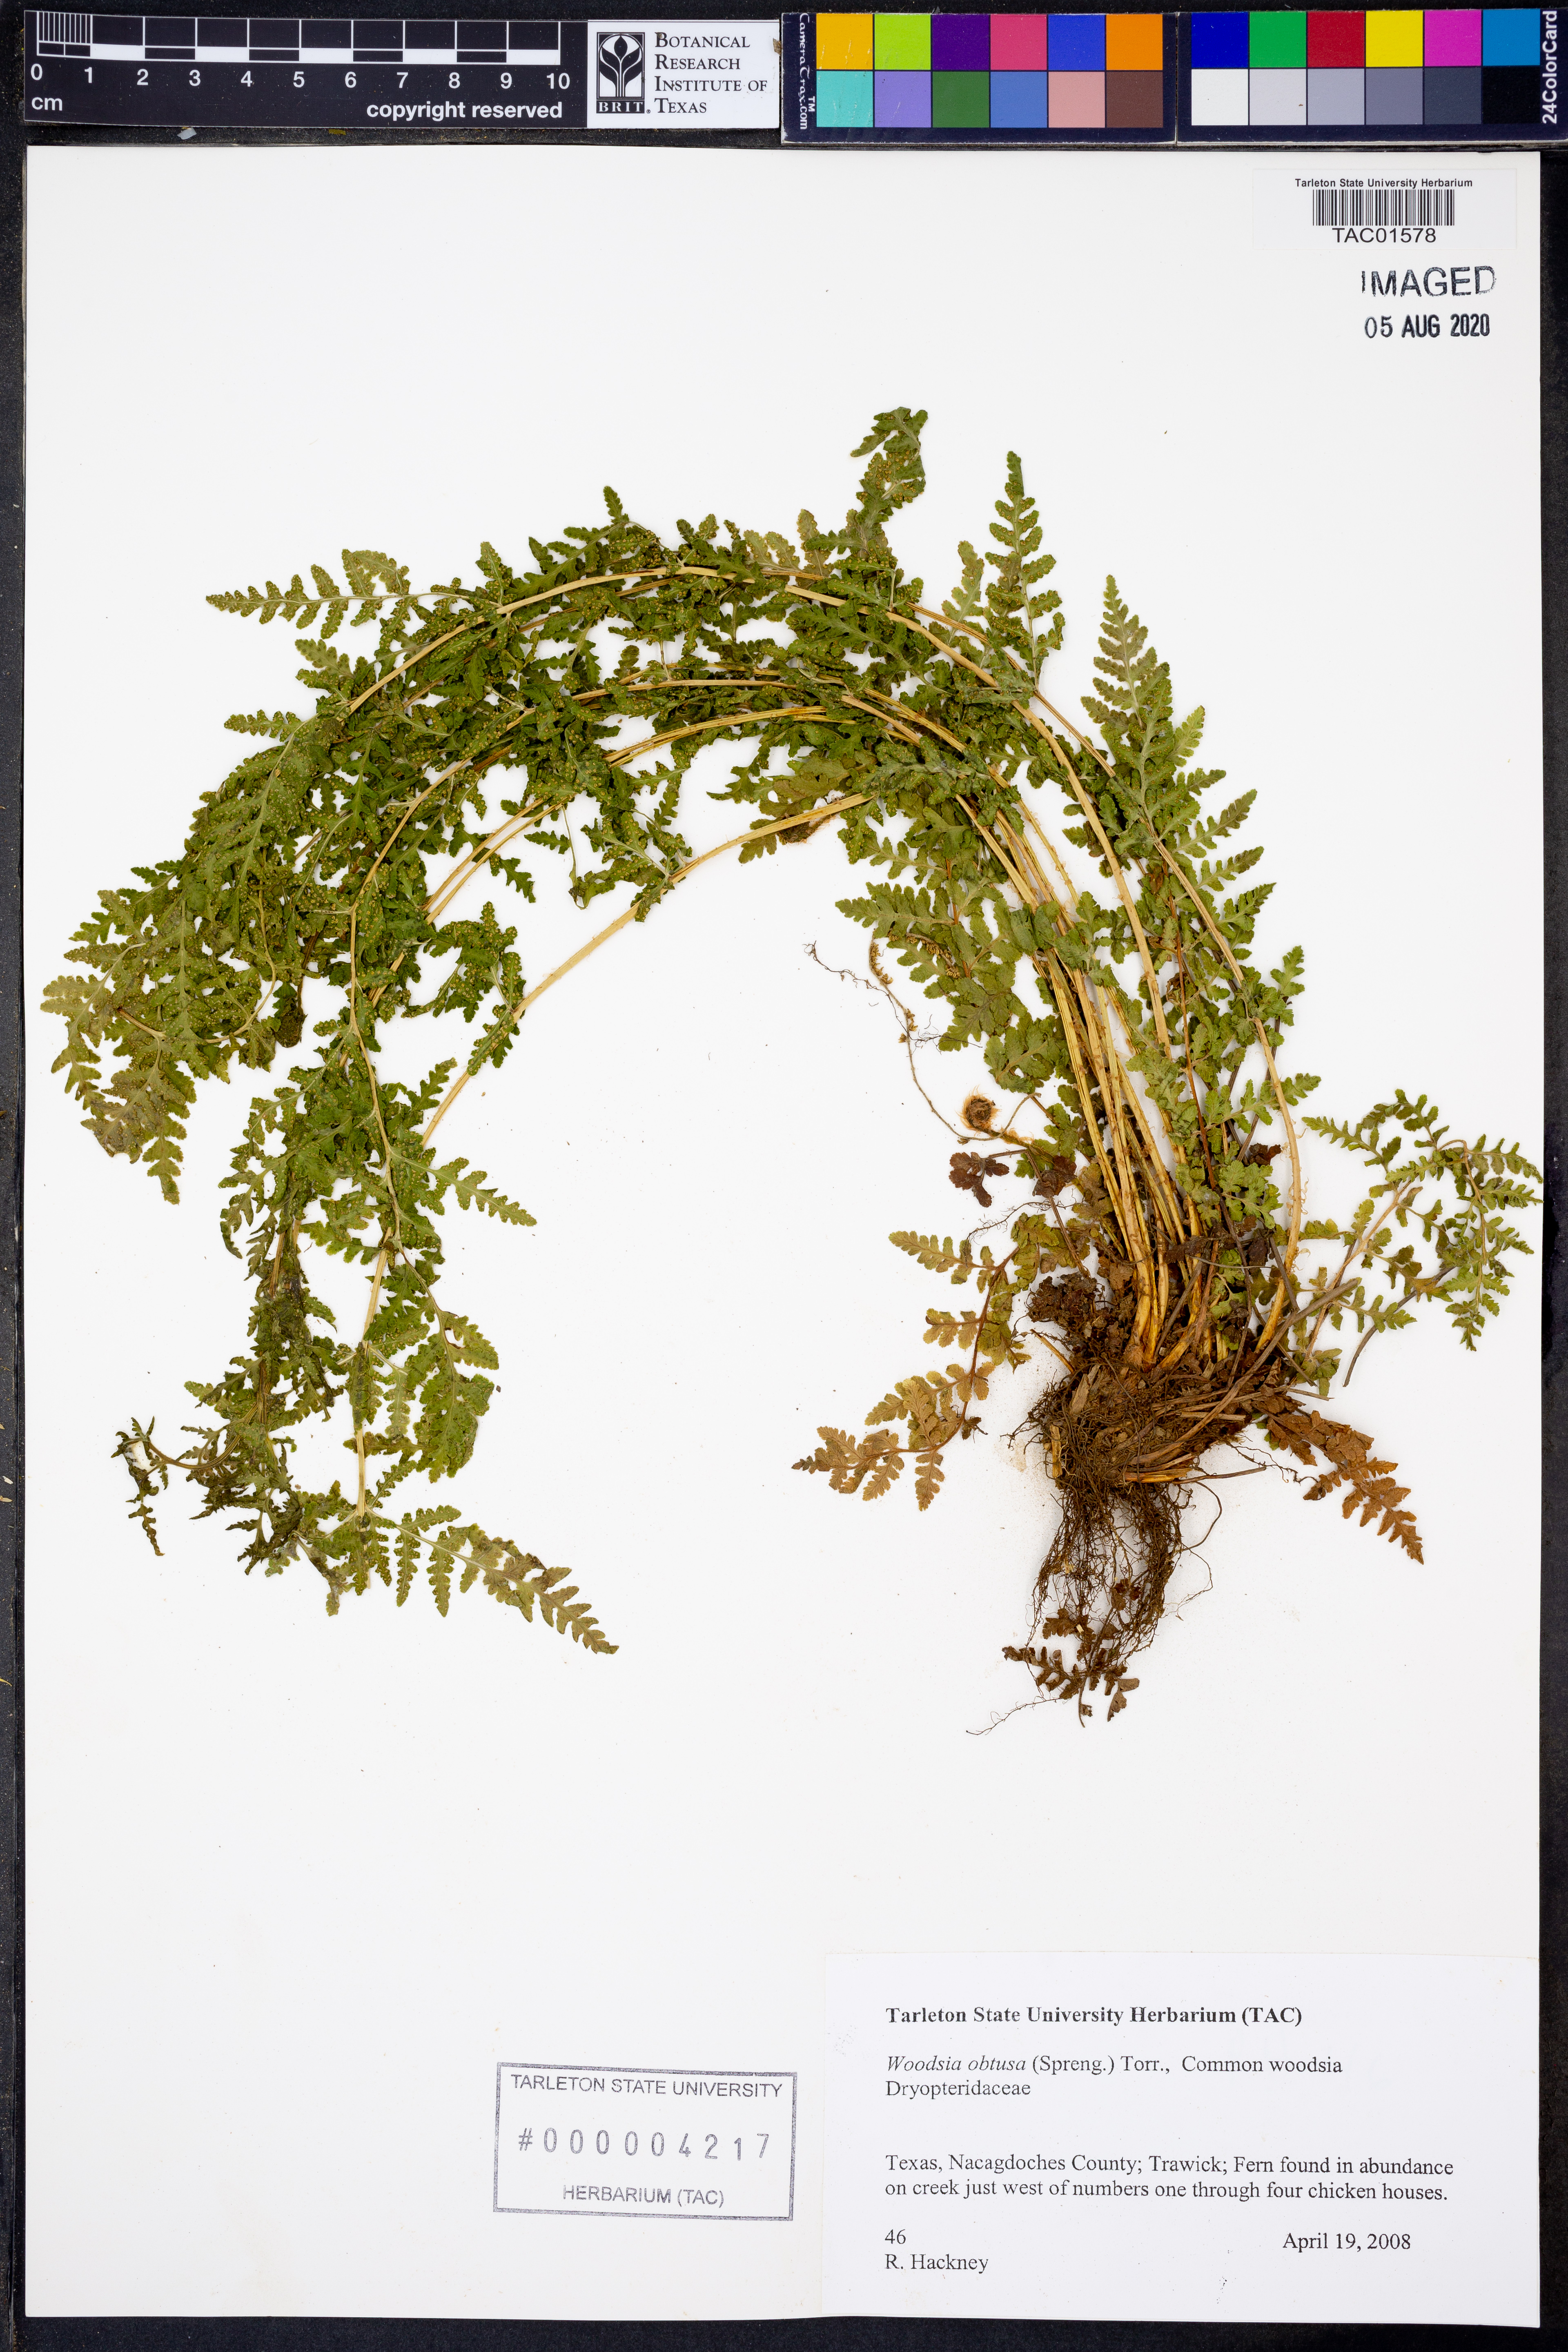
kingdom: Plantae
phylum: Tracheophyta
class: Polypodiopsida
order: Polypodiales
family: Woodsiaceae
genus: Physematium
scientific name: Physematium obtusum
